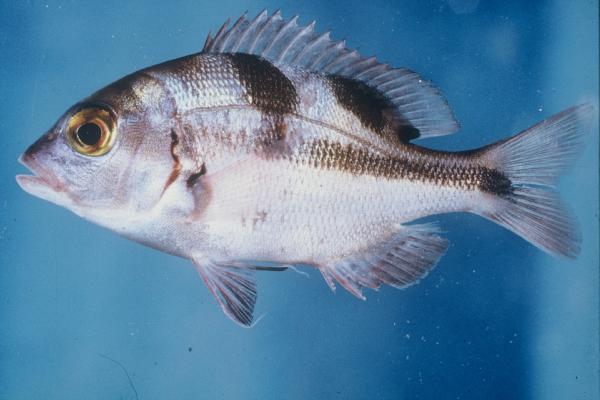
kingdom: Animalia
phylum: Chordata
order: Perciformes
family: Sparidae
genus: Chrysoblephus
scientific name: Chrysoblephus cristiceps
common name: Dageraad
